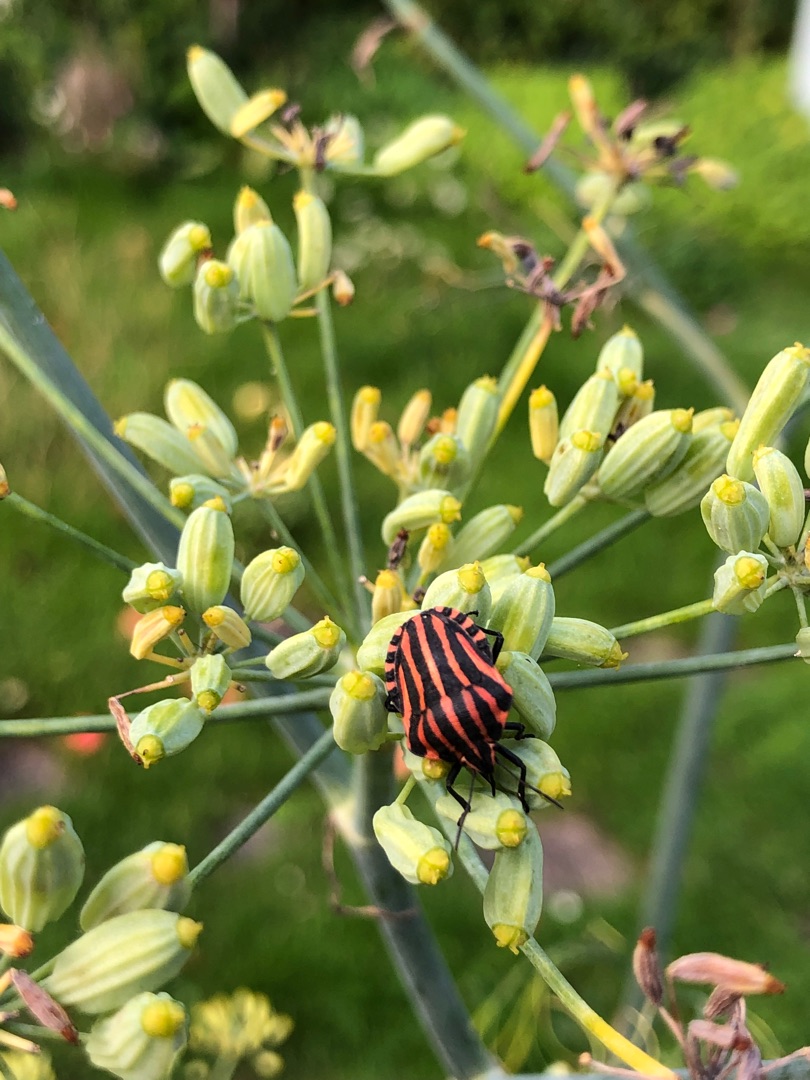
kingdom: Animalia
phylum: Arthropoda
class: Insecta
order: Hemiptera
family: Pentatomidae
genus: Graphosoma
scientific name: Graphosoma italicum
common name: Stribetæge
